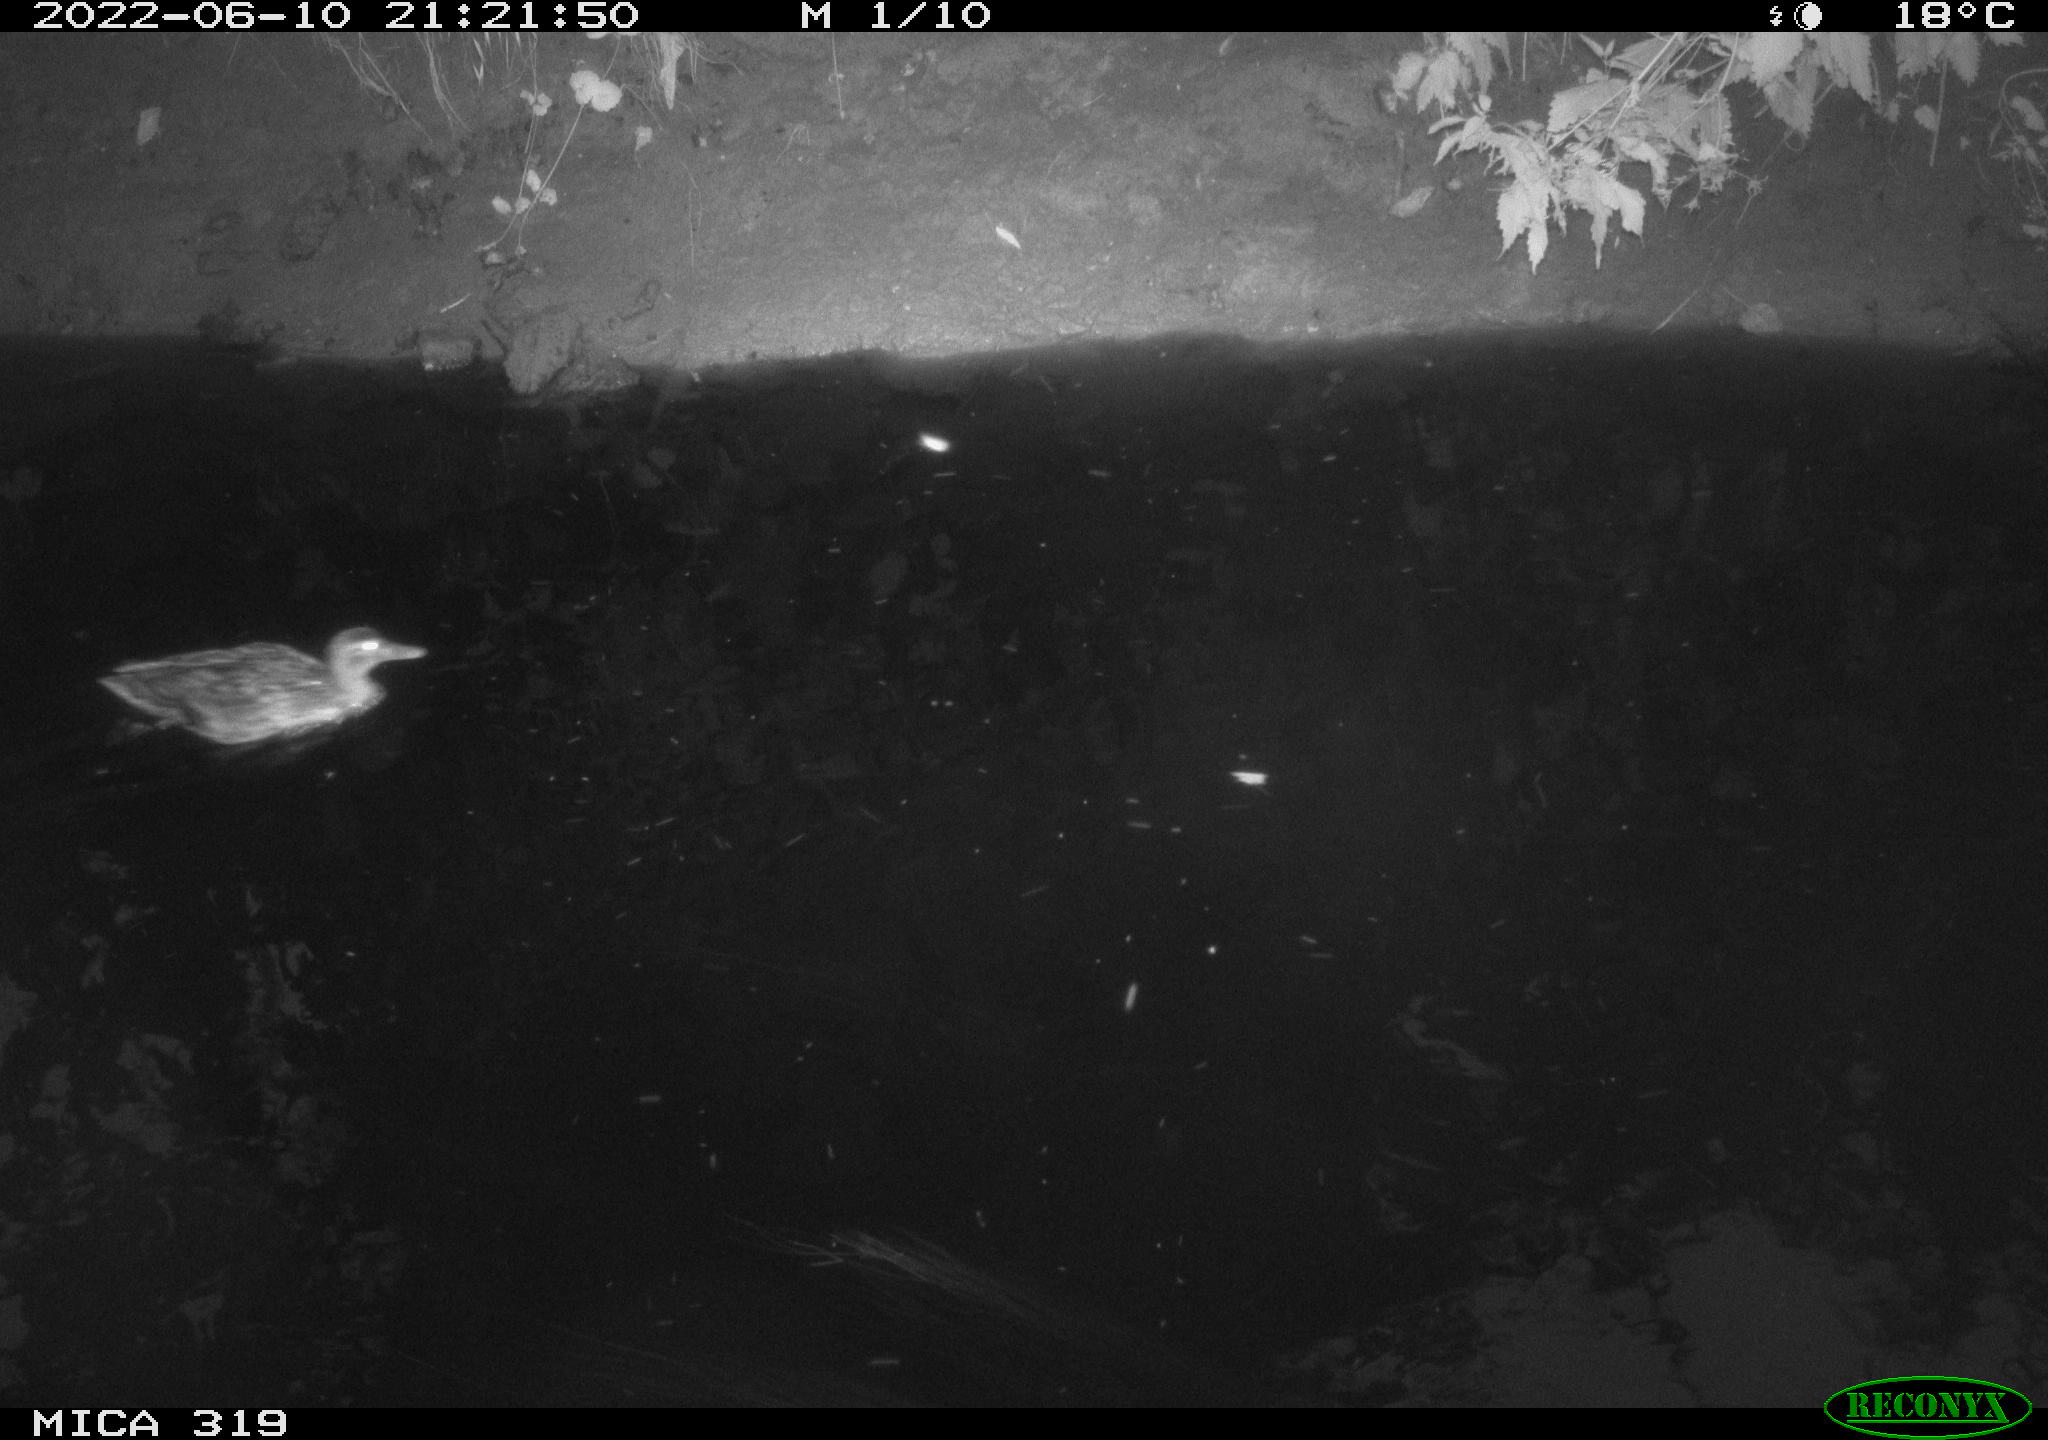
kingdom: Animalia
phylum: Chordata
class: Aves
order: Anseriformes
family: Anatidae
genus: Anas
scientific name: Anas
